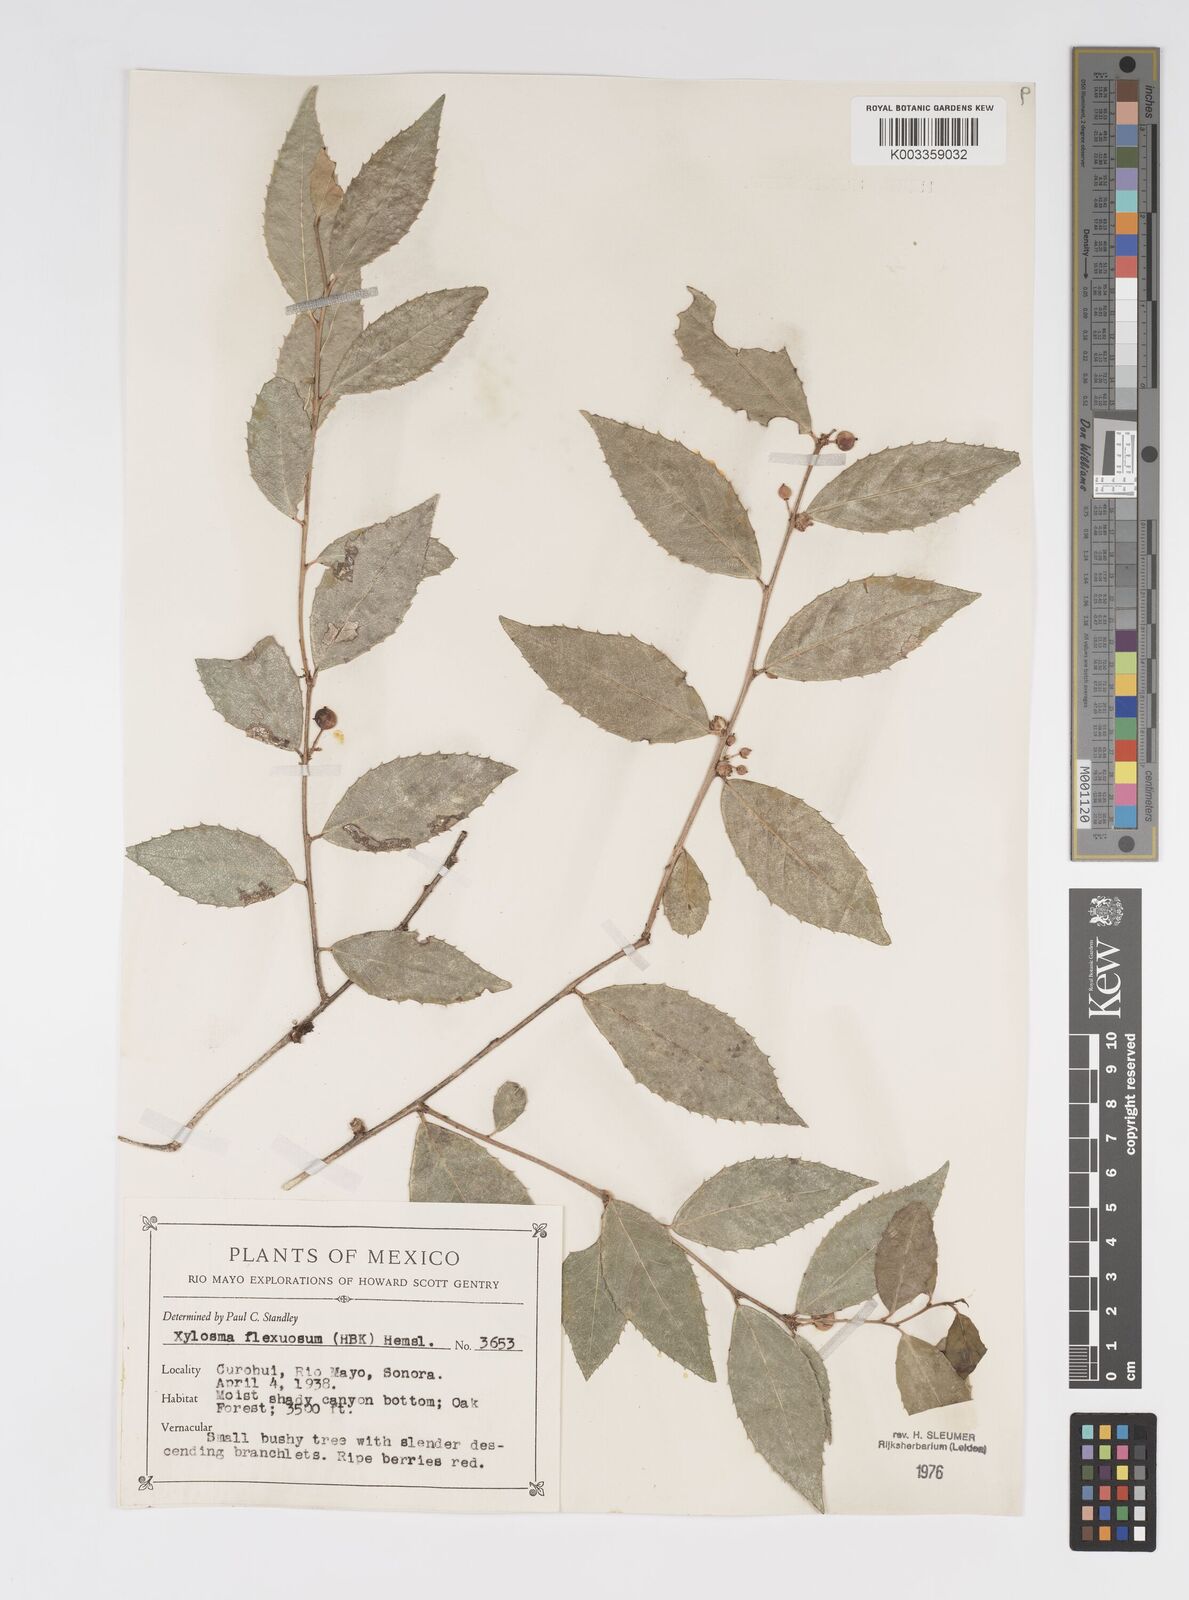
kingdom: Plantae
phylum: Tracheophyta
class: Magnoliopsida
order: Malpighiales
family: Salicaceae
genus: Xylosma
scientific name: Xylosma flexuosa
